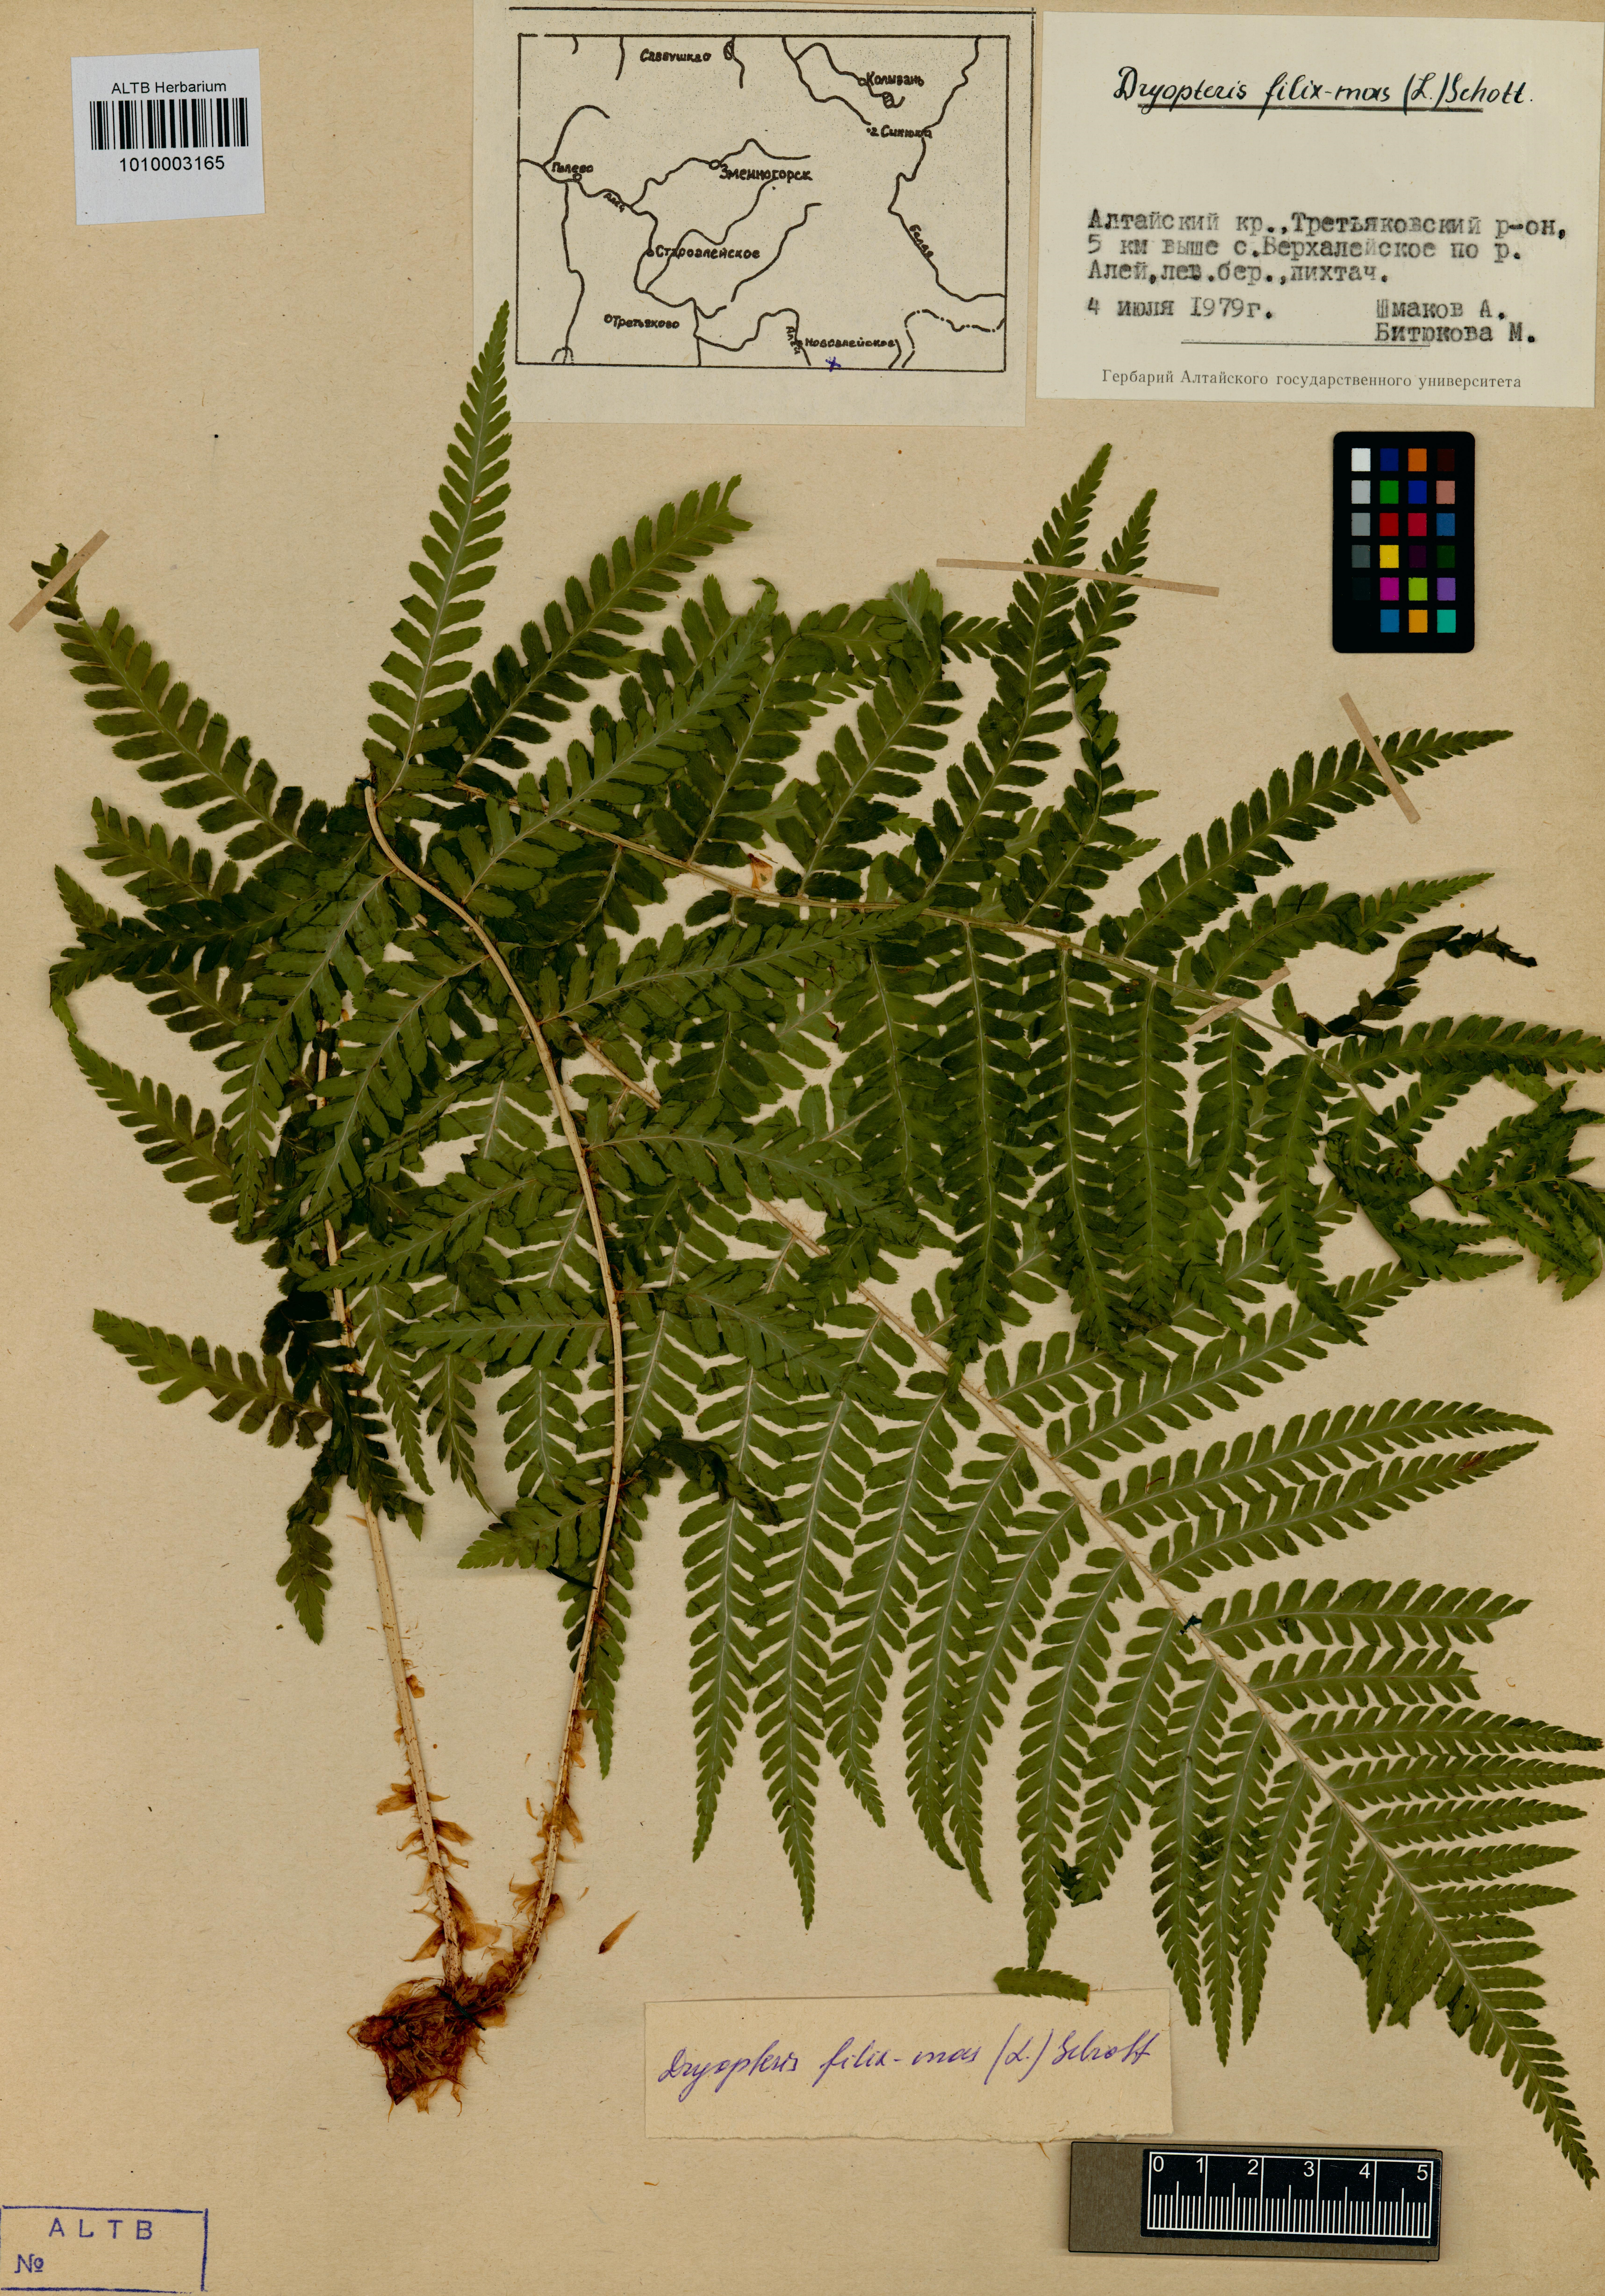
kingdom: Plantae
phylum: Tracheophyta
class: Polypodiopsida
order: Polypodiales
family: Dryopteridaceae
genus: Dryopteris
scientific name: Dryopteris filix-mas
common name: Male fern
